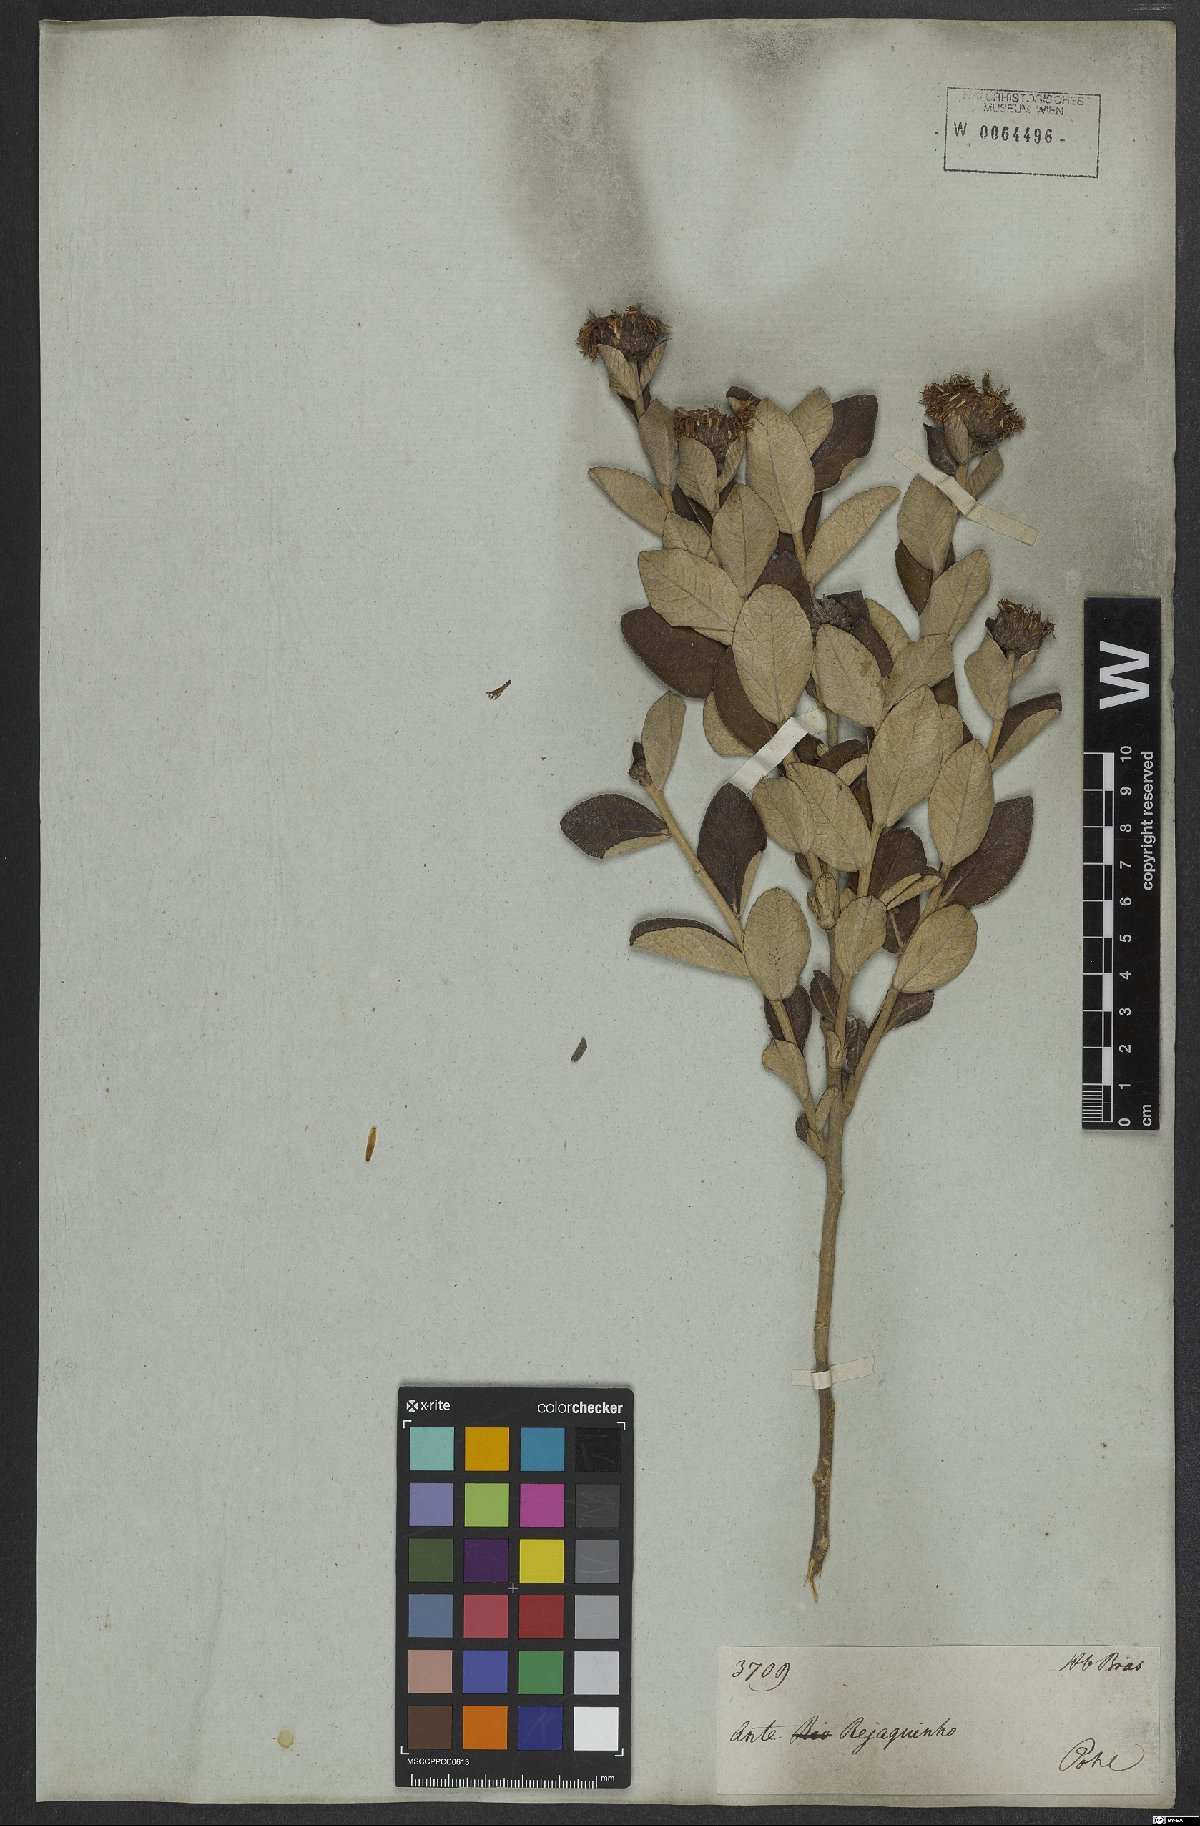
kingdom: Plantae
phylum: Tracheophyta
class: Magnoliopsida
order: Asterales
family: Asteraceae
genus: Lessingianthus
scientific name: Lessingianthus argyrophyllus
